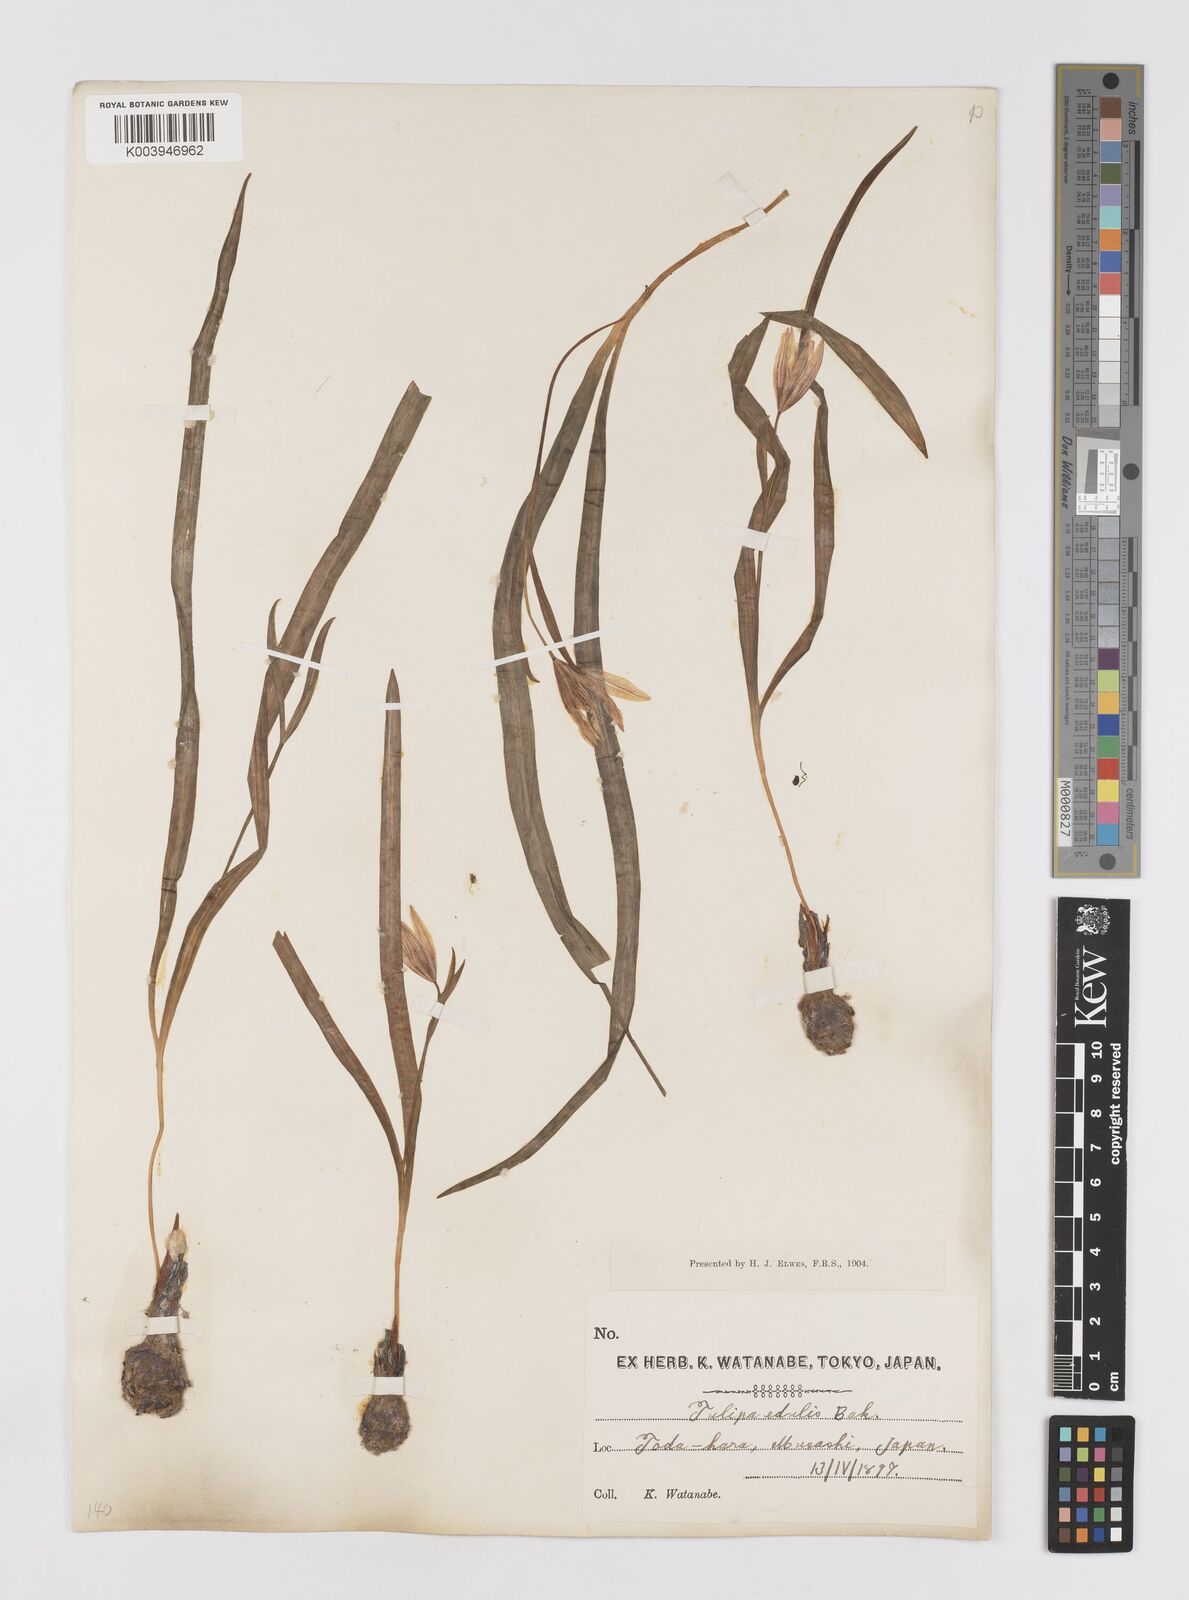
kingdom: Plantae
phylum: Tracheophyta
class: Liliopsida
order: Liliales
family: Liliaceae
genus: Amana
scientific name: Amana edulis
